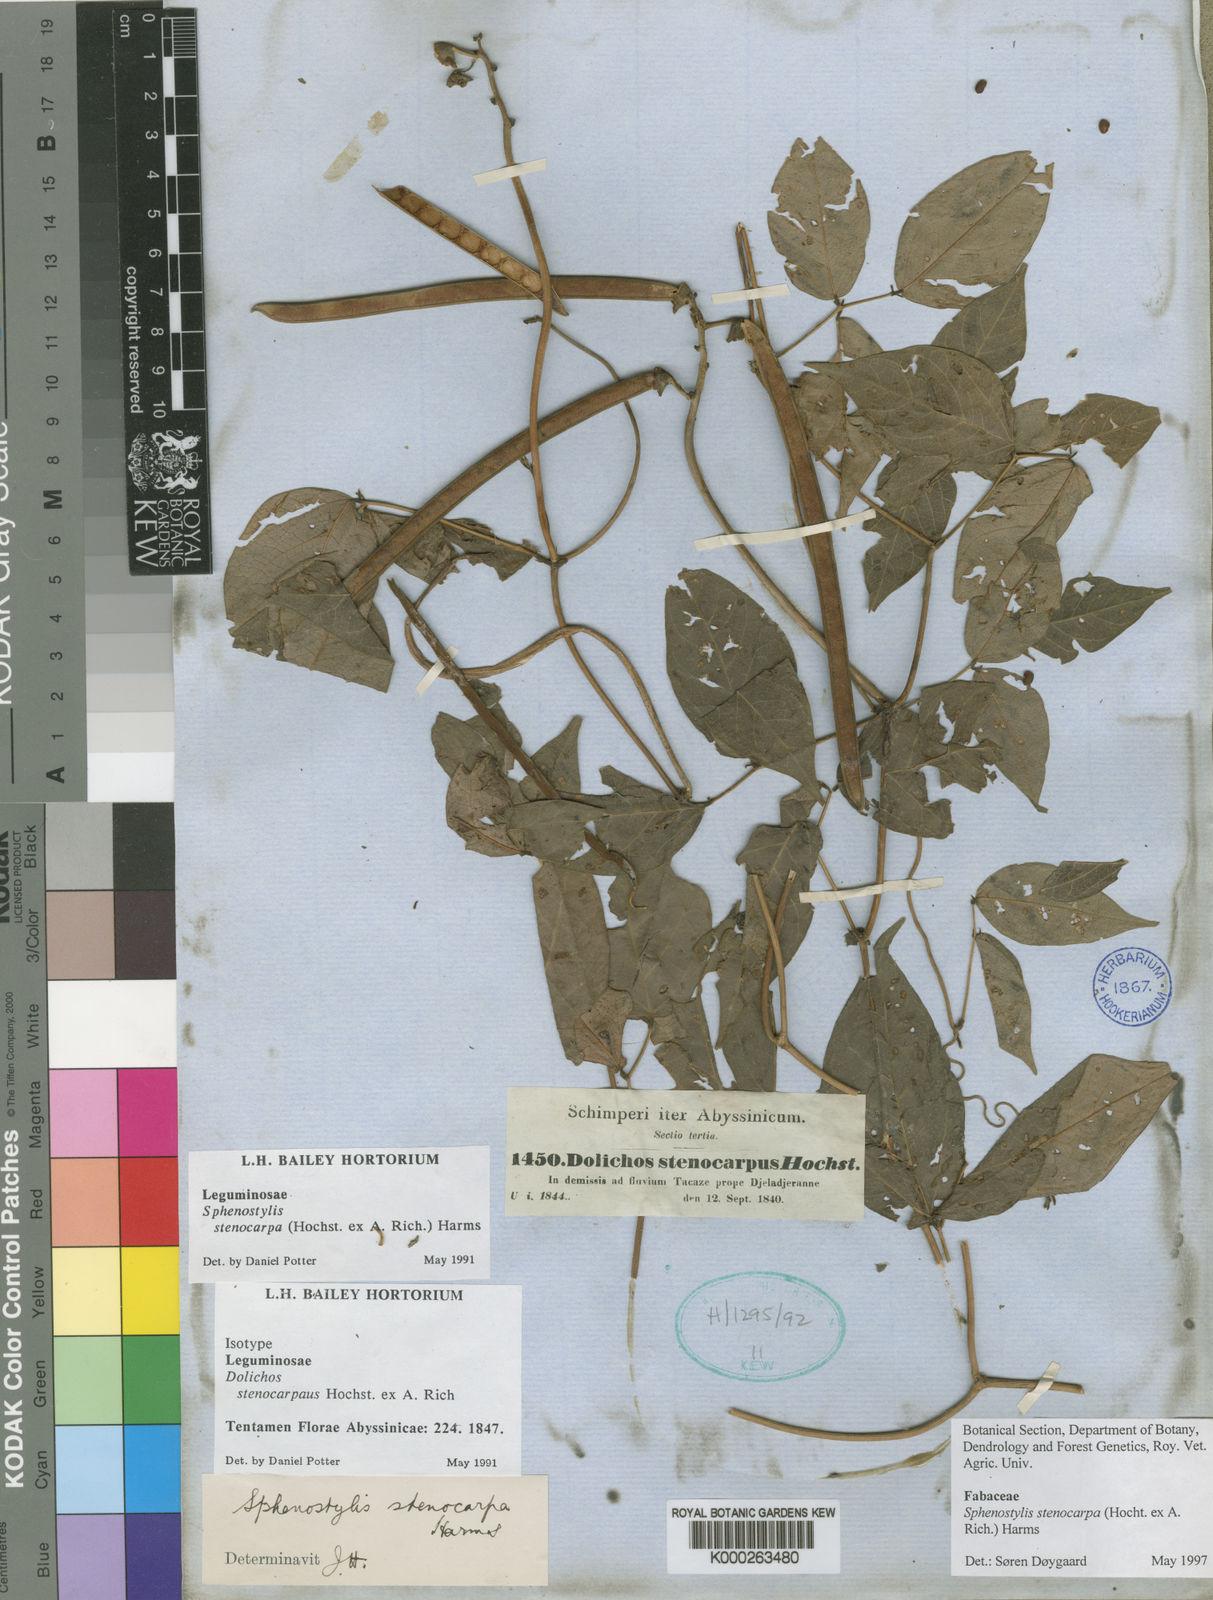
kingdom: Plantae
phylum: Tracheophyta
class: Magnoliopsida
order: Fabales
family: Fabaceae
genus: Sphenostylis
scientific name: Sphenostylis stenocarpa
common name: Yam-pea
